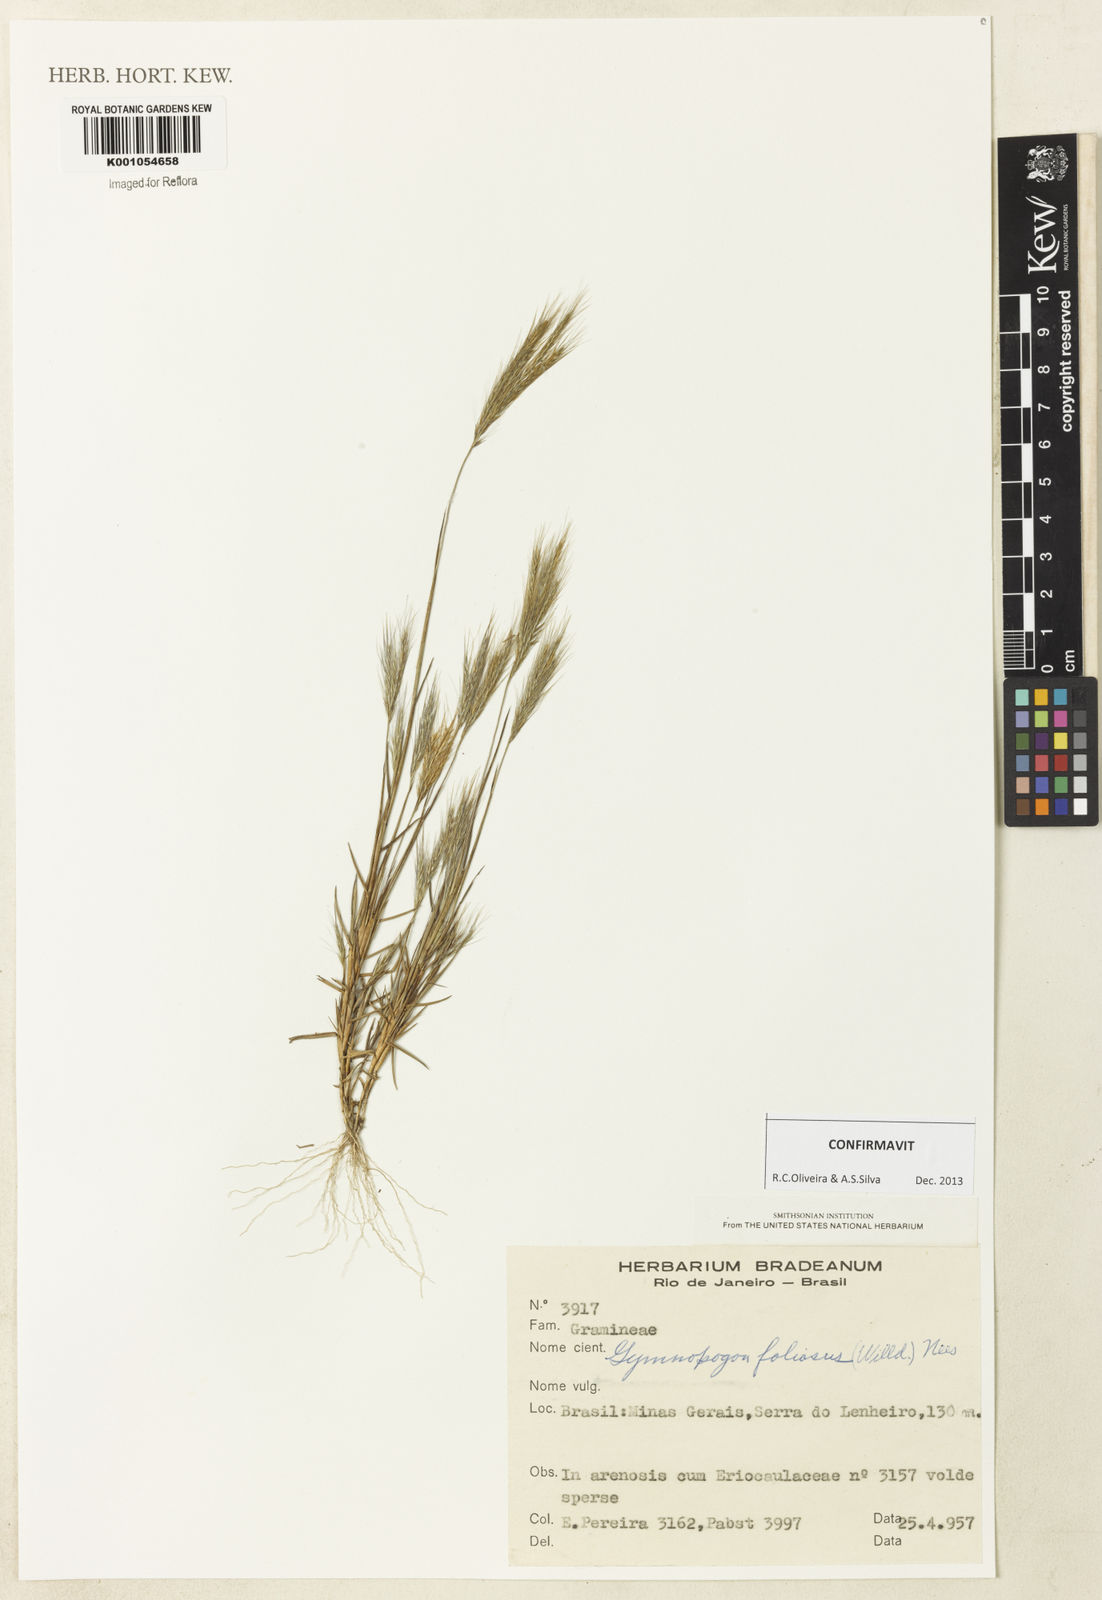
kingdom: Plantae
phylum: Tracheophyta
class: Liliopsida
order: Poales
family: Poaceae
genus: Gymnopogon
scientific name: Gymnopogon foliosus
